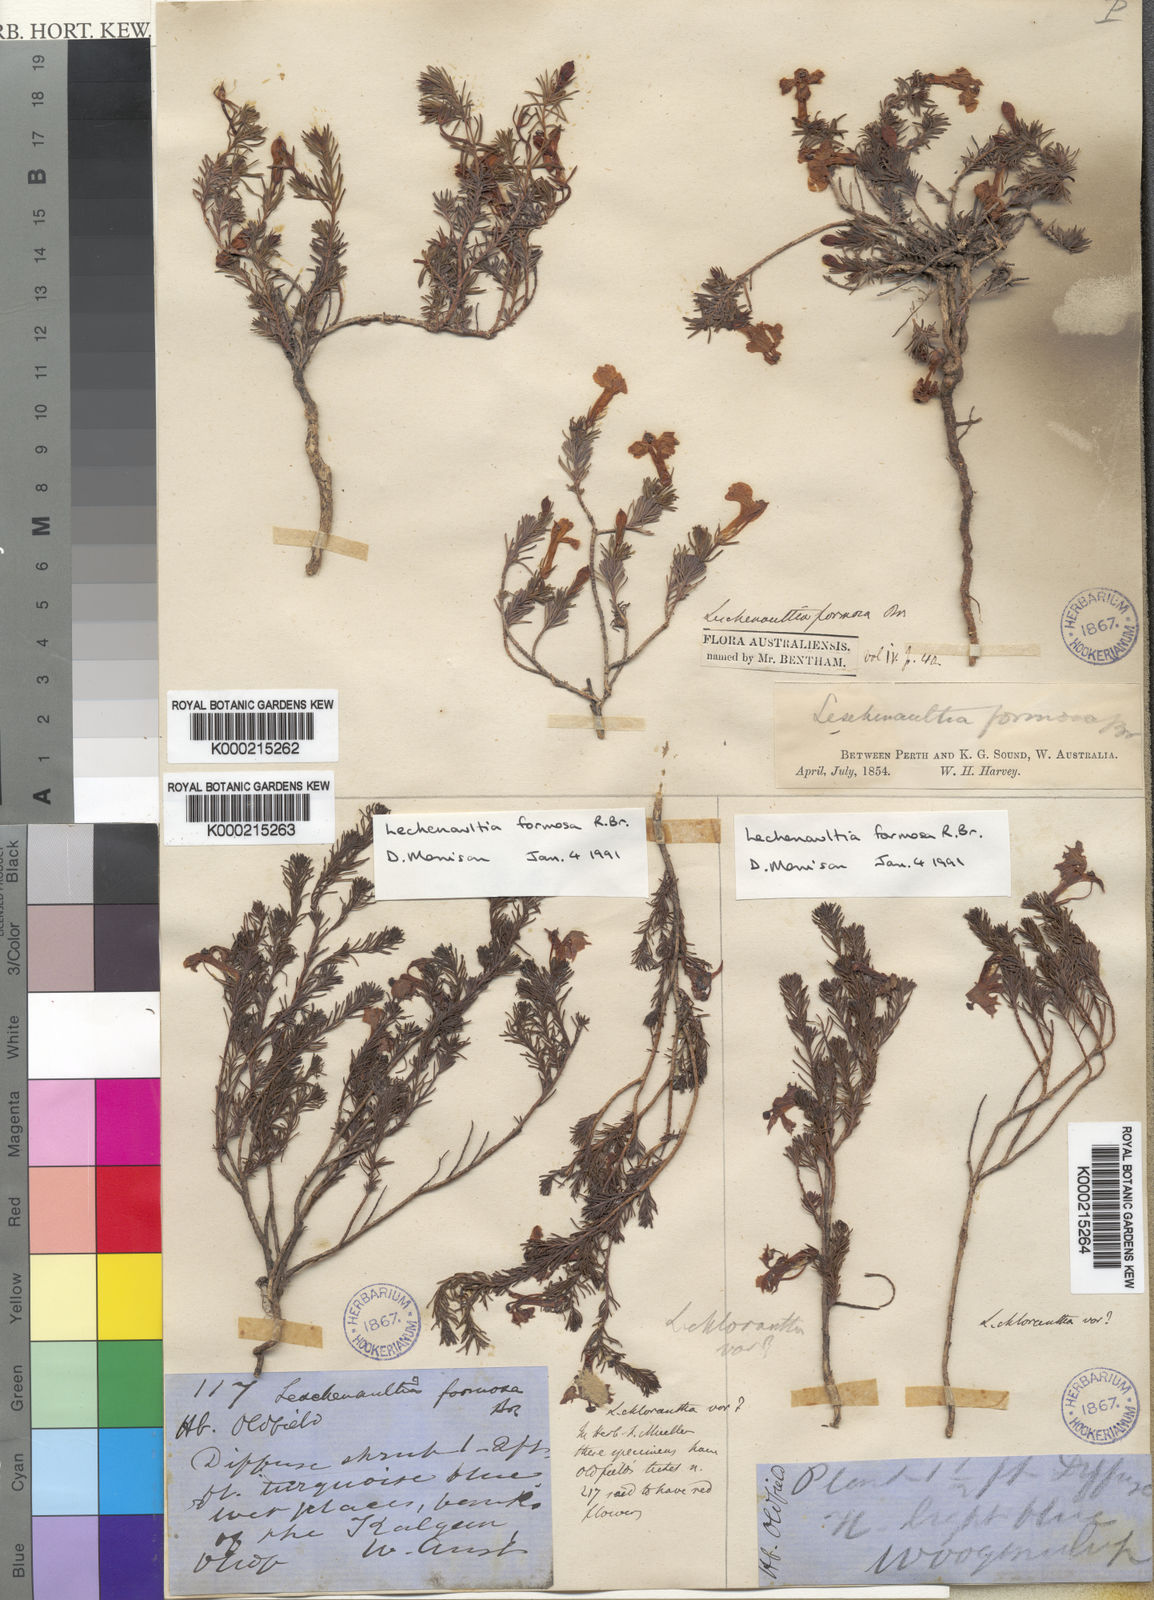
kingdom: Plantae
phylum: Tracheophyta
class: Magnoliopsida
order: Asterales
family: Goodeniaceae
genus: Leschenaultia
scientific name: Leschenaultia formosa
